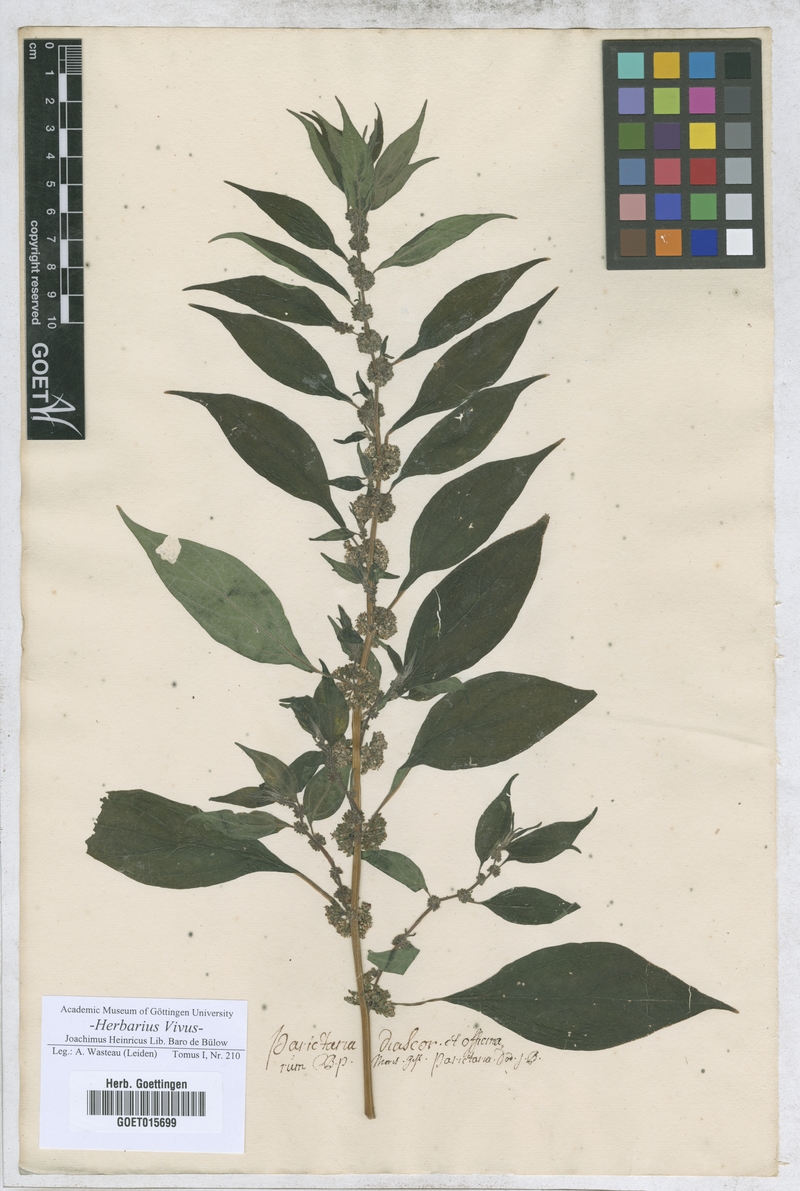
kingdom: Plantae
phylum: Tracheophyta
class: Magnoliopsida
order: Rosales
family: Urticaceae
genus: Parietaria
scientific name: Parietaria officinalis
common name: Eastern pellitory-of-the-wall
